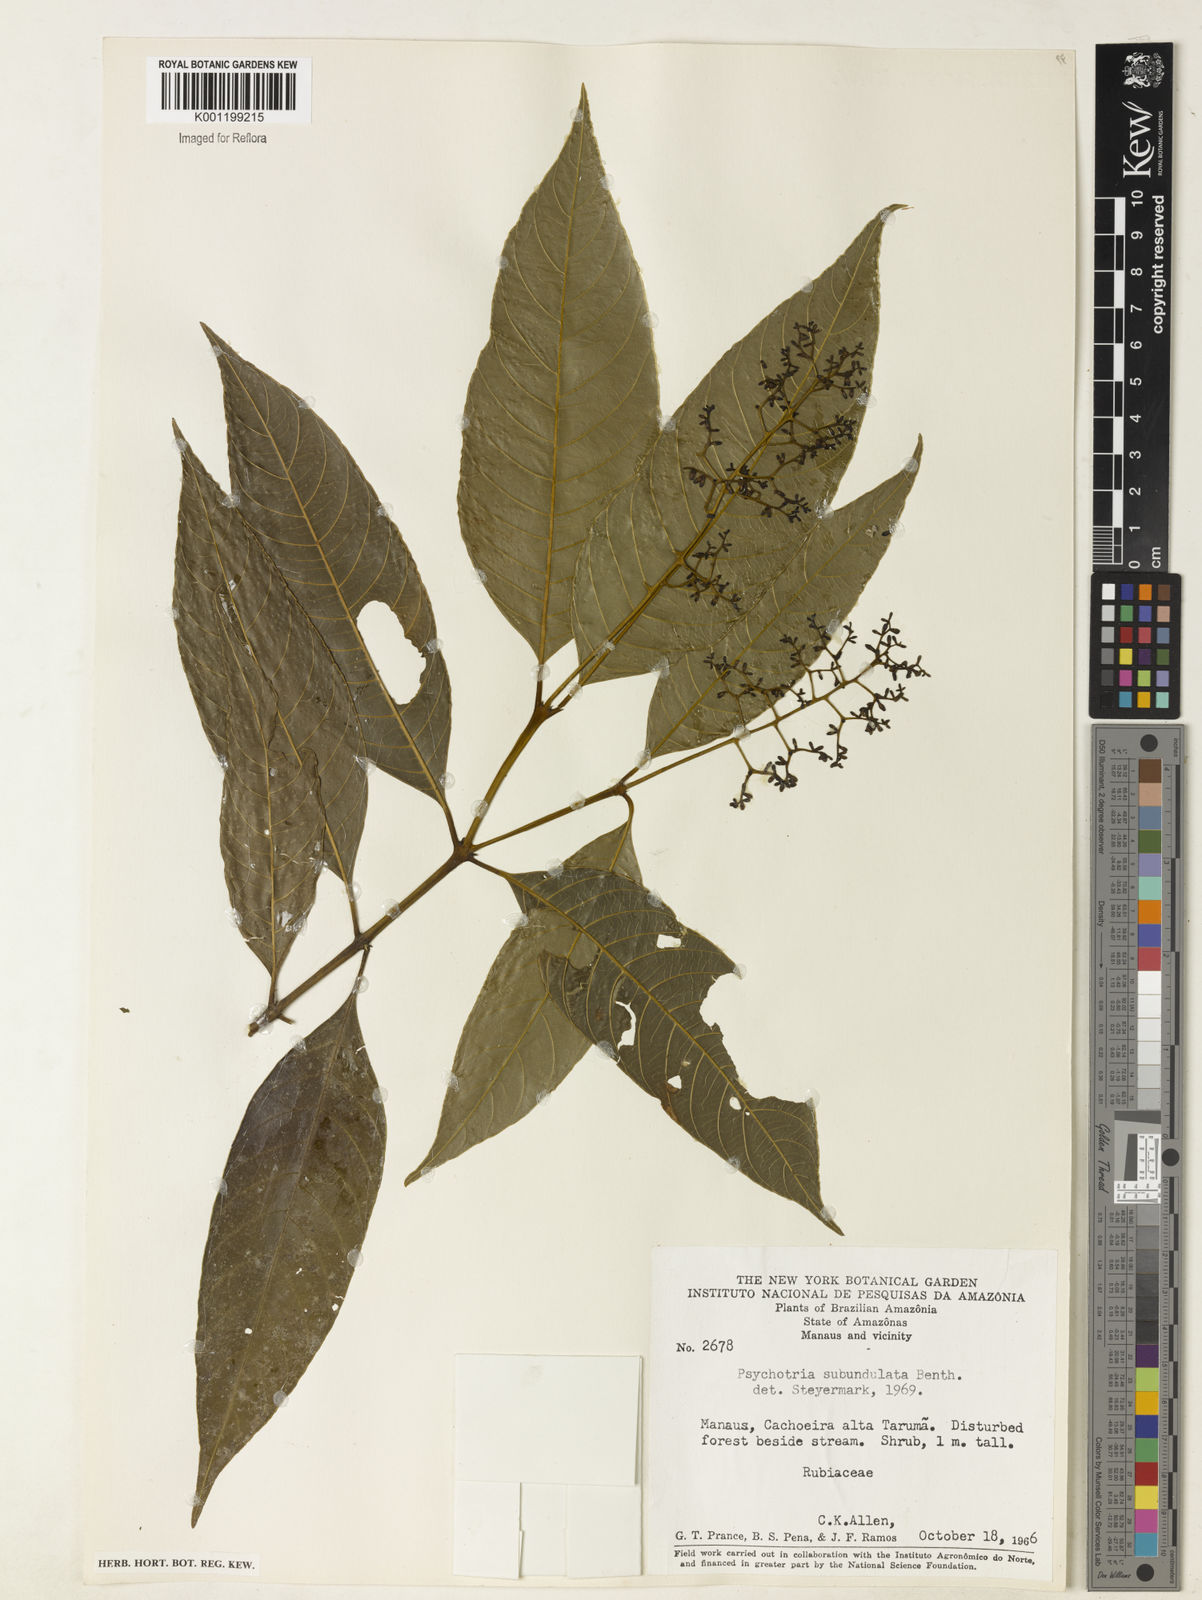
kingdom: Plantae
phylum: Tracheophyta
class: Magnoliopsida
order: Gentianales
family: Rubiaceae
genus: Palicourea
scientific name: Palicourea subundulata
